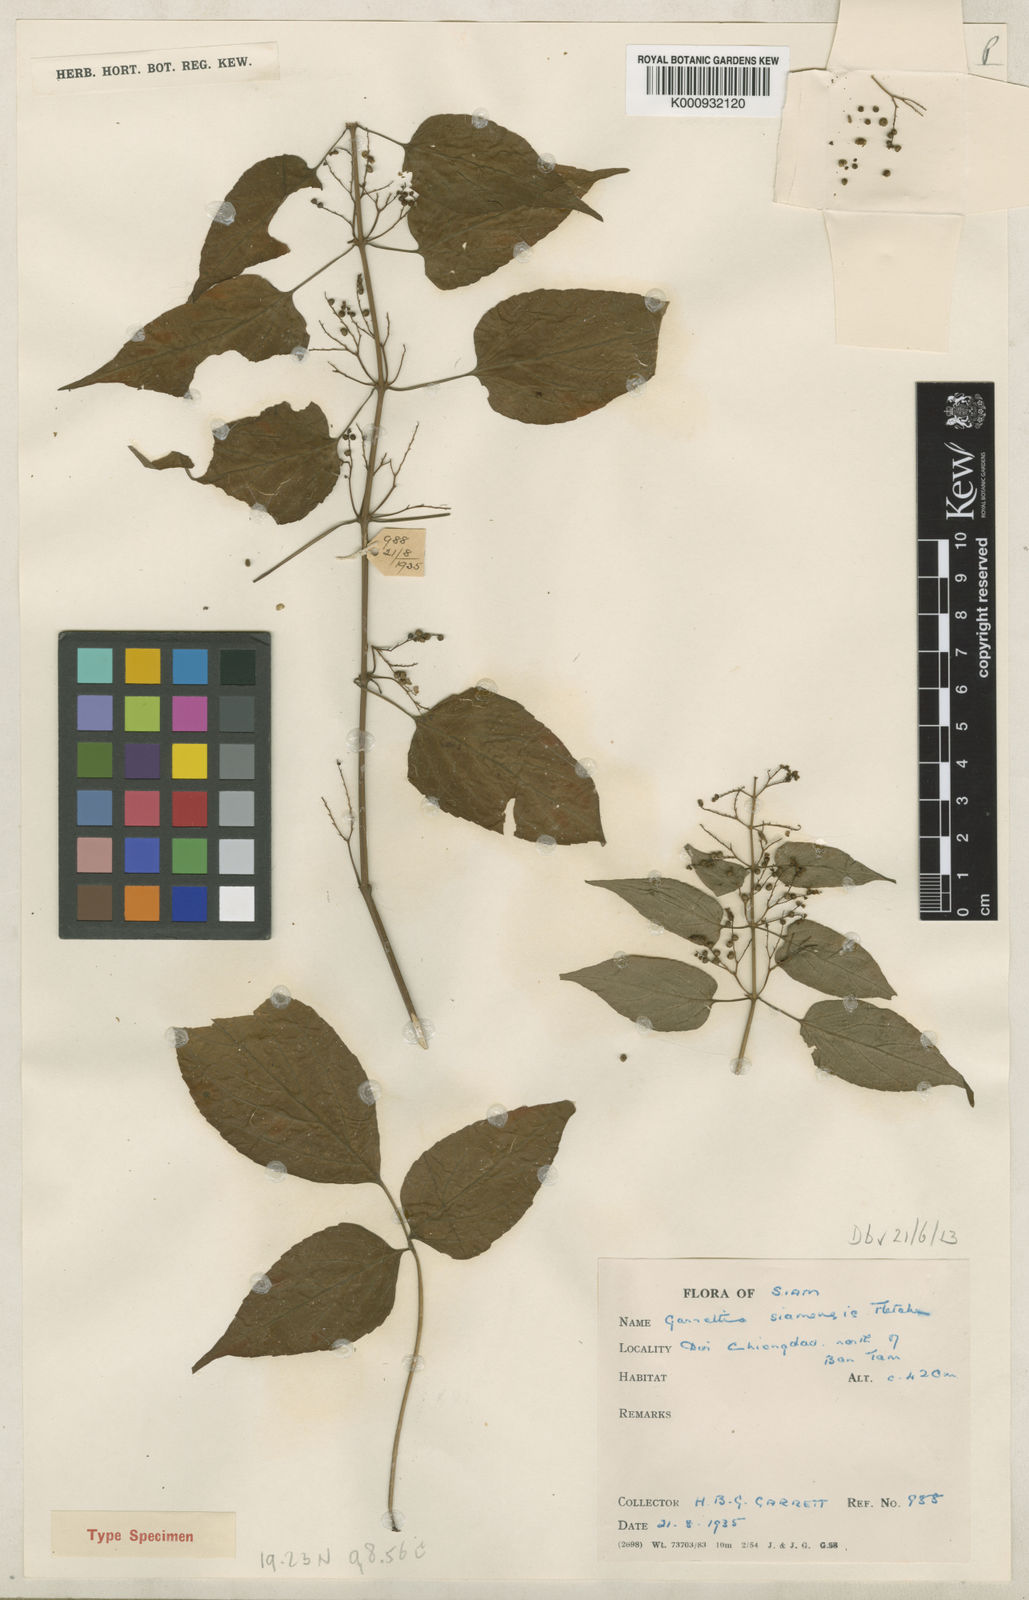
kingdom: Plantae
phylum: Tracheophyta
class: Magnoliopsida
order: Lamiales
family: Lamiaceae
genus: Garrettia
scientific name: Garrettia siamensis
